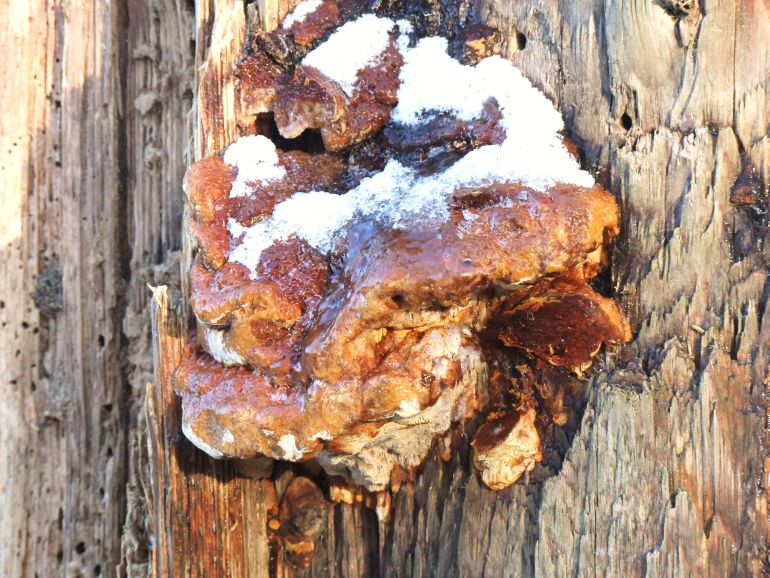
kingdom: Fungi
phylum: Basidiomycota
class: Agaricomycetes
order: Gloeophyllales
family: Gloeophyllaceae
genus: Gloeophyllum
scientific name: Gloeophyllum odoratum
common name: duftende korkhat
